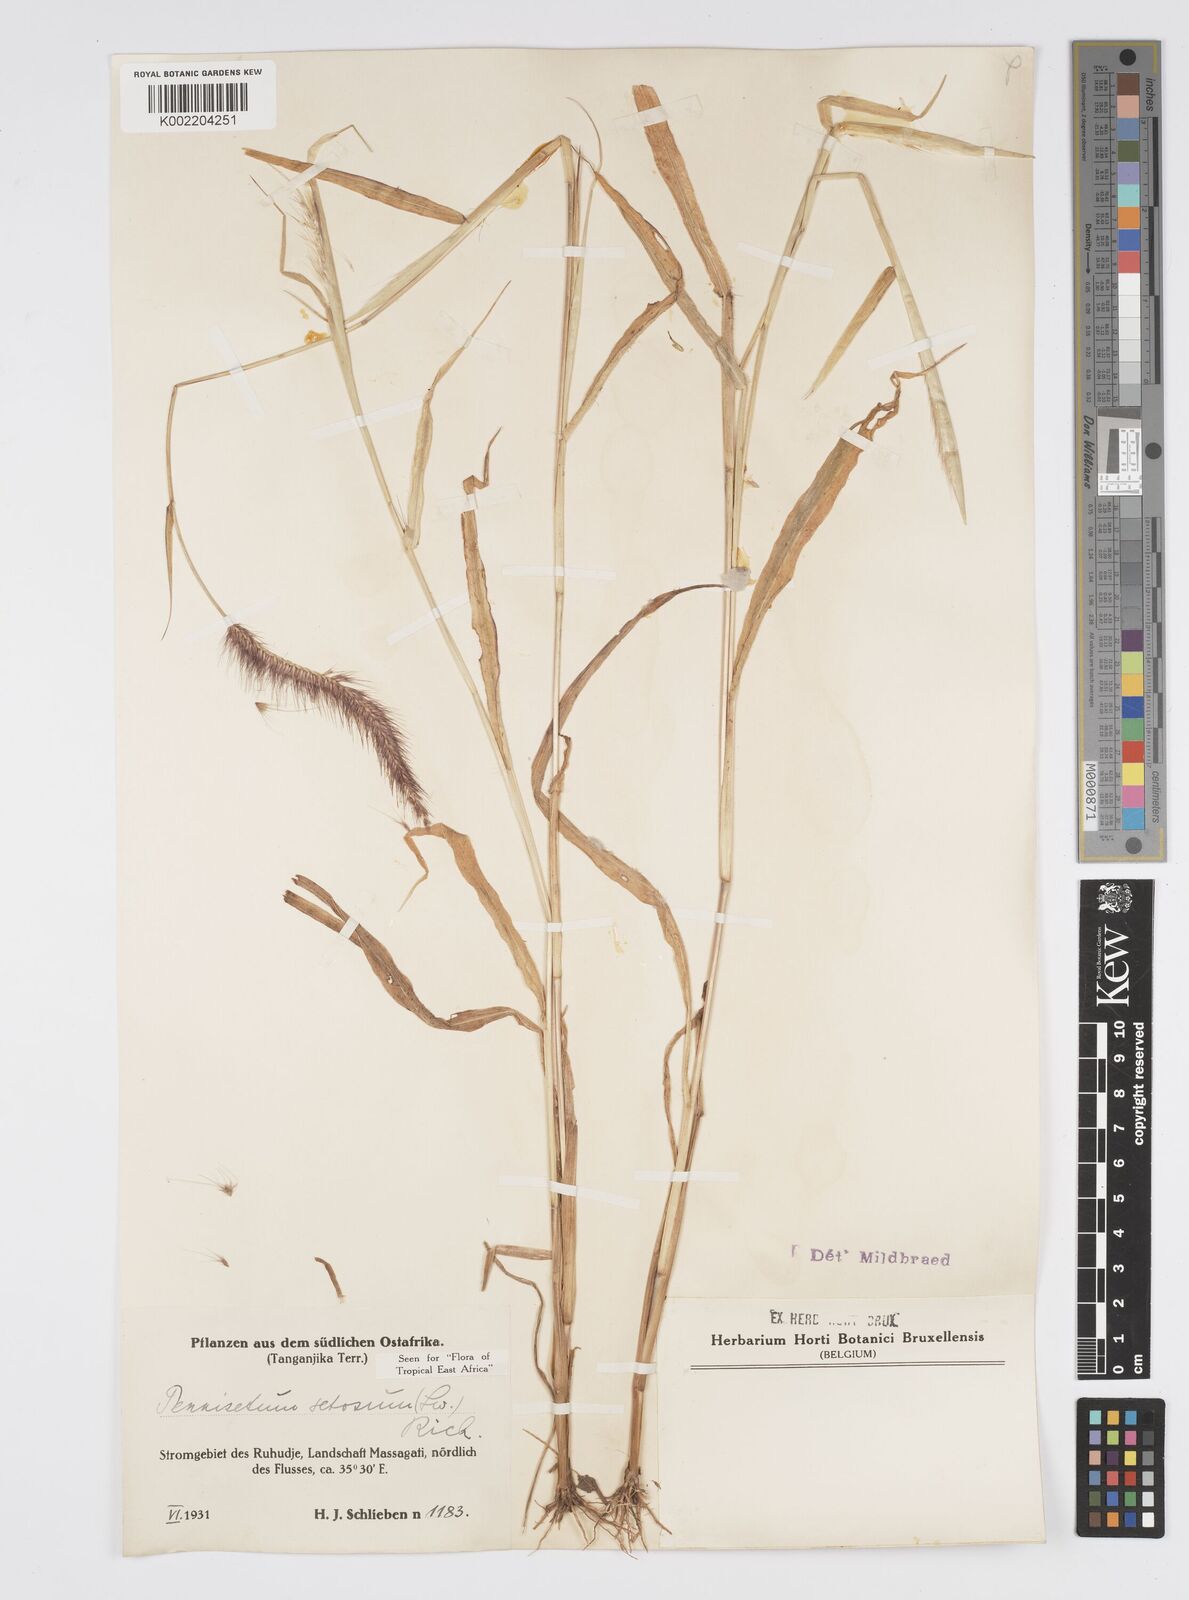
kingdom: Plantae
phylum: Tracheophyta
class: Liliopsida
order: Poales
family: Poaceae
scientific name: Poaceae
